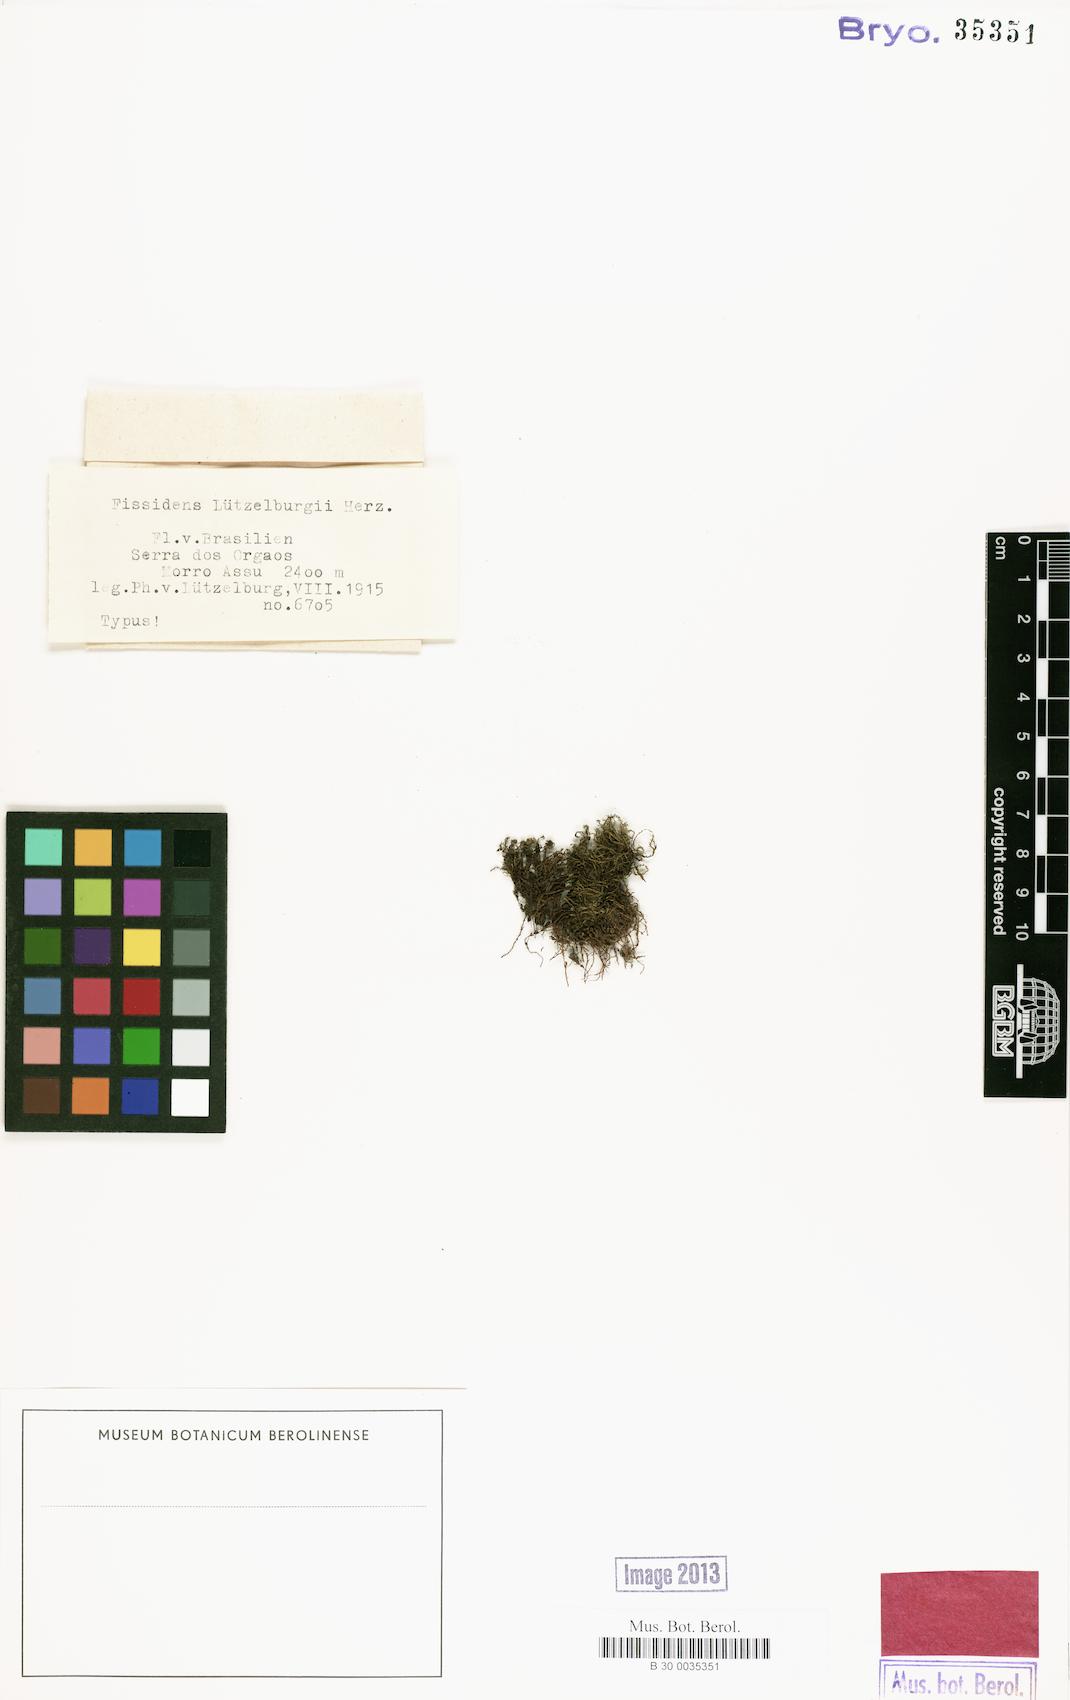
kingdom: Plantae
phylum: Bryophyta
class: Bryopsida
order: Dicranales
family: Fissidentaceae
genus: Fissidens
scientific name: Fissidens
